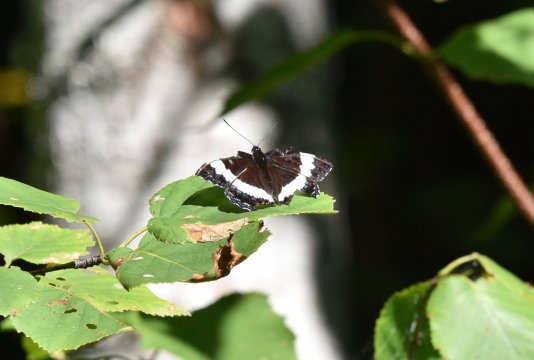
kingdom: Animalia
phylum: Arthropoda
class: Insecta
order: Lepidoptera
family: Nymphalidae
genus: Limenitis
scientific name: Limenitis arthemis
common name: Red-spotted Admiral
